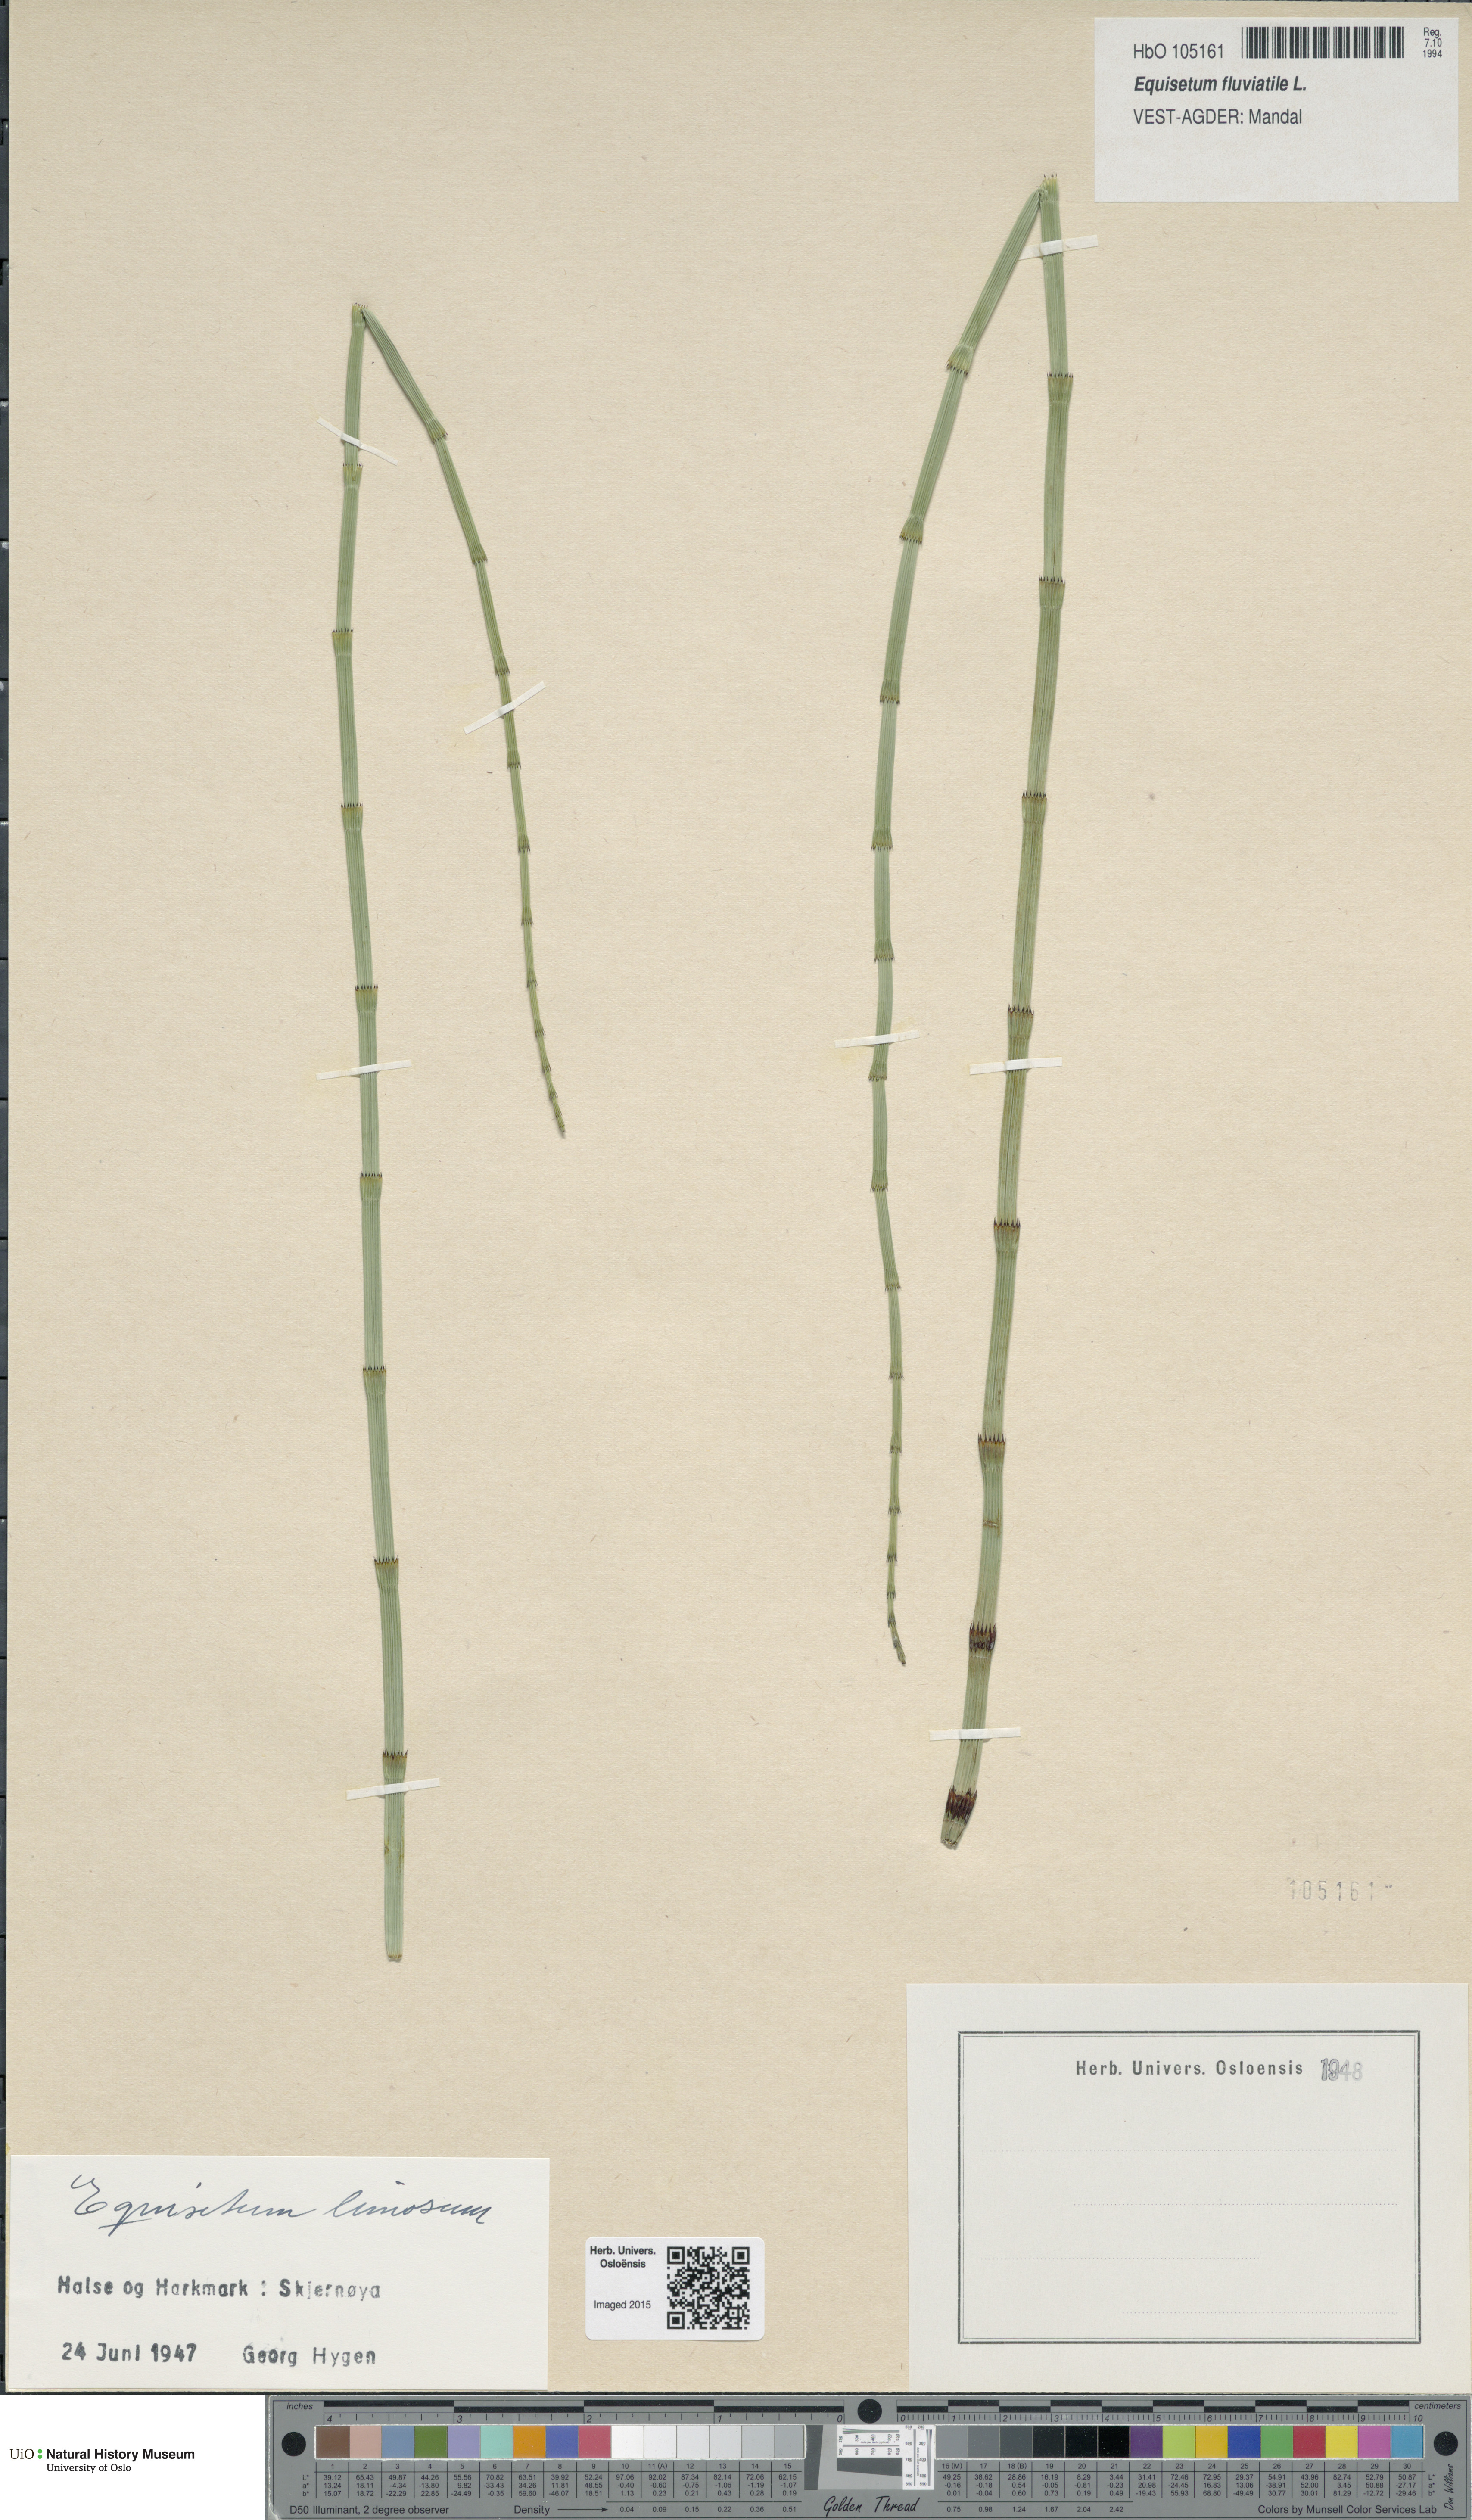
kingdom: Plantae
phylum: Tracheophyta
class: Polypodiopsida
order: Equisetales
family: Equisetaceae
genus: Equisetum
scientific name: Equisetum fluviatile
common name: Water horsetail
